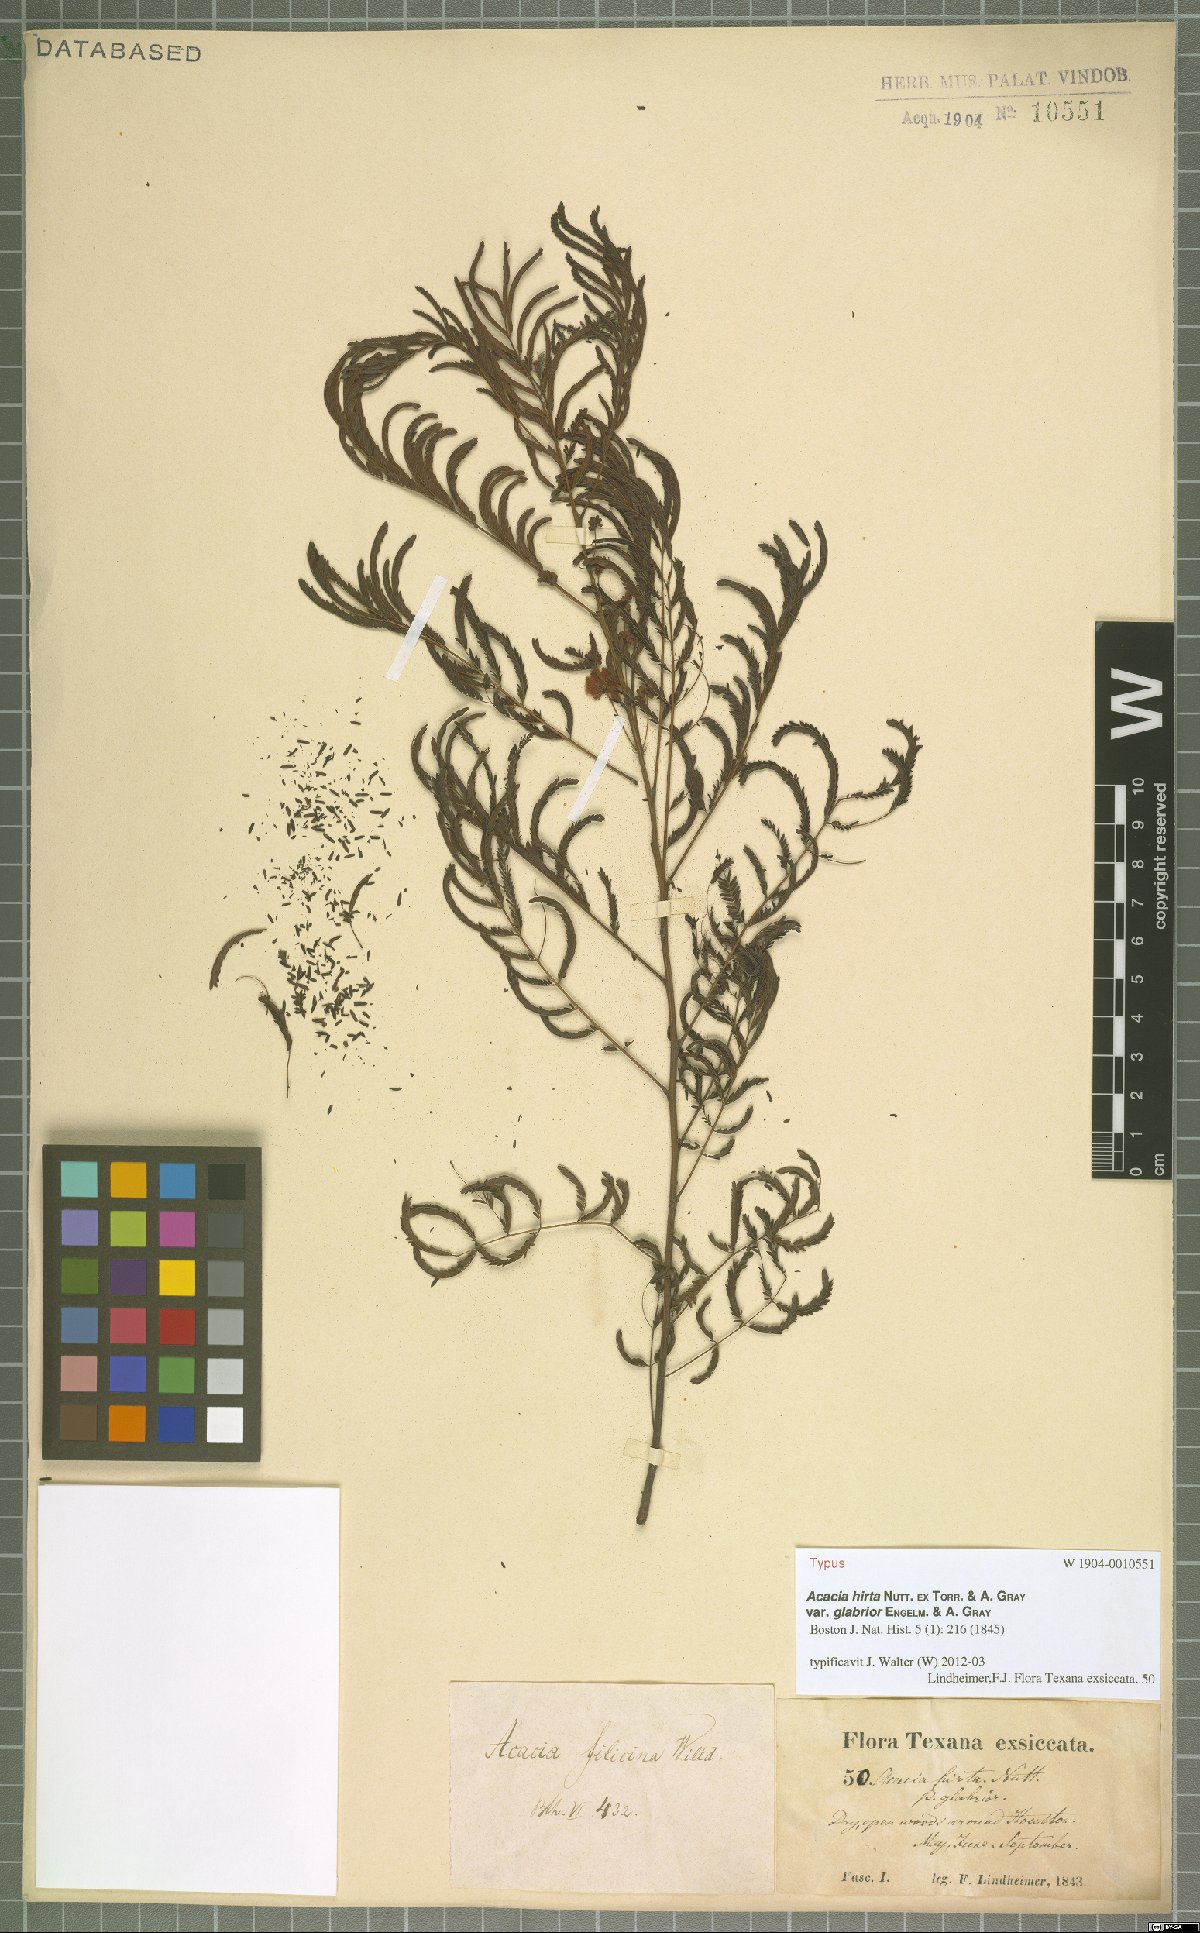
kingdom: Plantae
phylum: Tracheophyta
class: Magnoliopsida
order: Fabales
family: Fabaceae
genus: Acaciella
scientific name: Acaciella angustissima
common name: Prairie acacia
